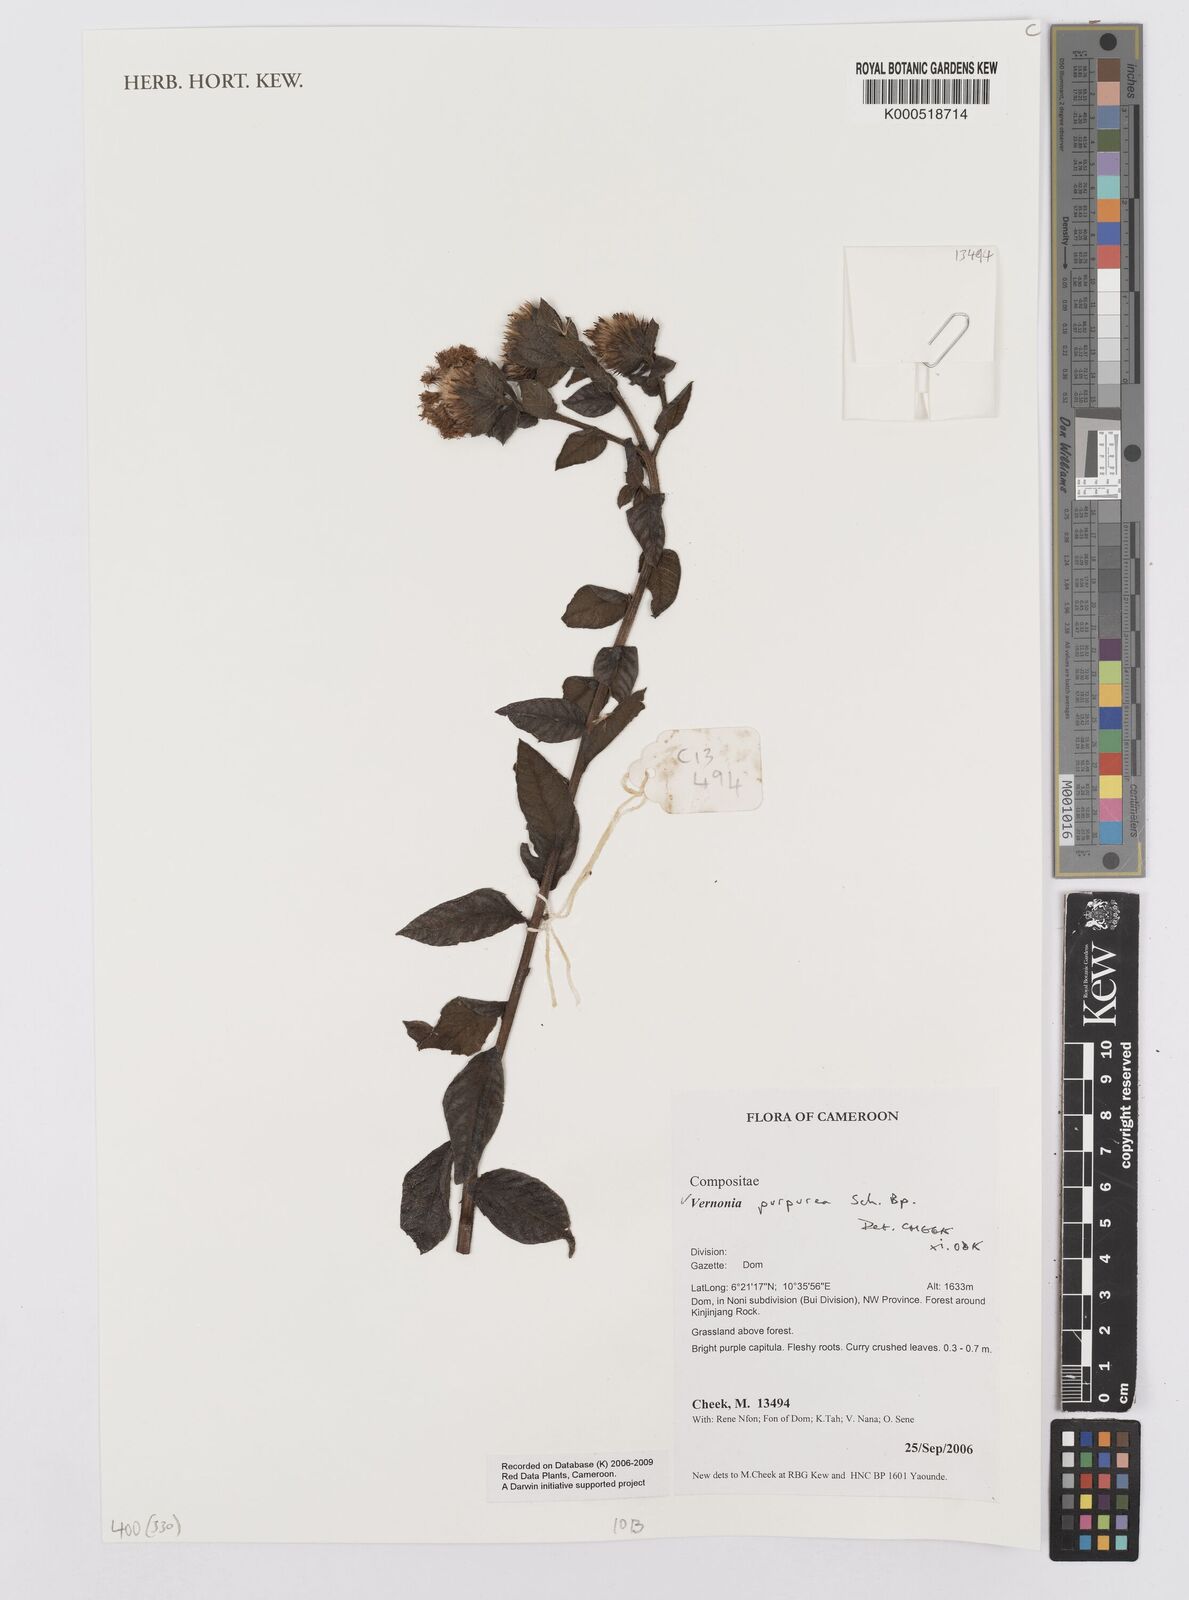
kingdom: Plantae
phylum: Tracheophyta
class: Magnoliopsida
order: Asterales
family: Asteraceae
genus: Vernonia
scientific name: Vernonia
